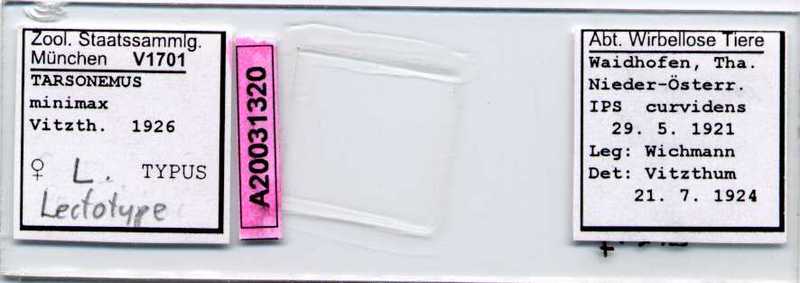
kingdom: Animalia
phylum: Arthropoda
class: Arachnida
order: Trombidiformes
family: Tarsonemidae
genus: Tarsonemus
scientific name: Tarsonemus minimax
